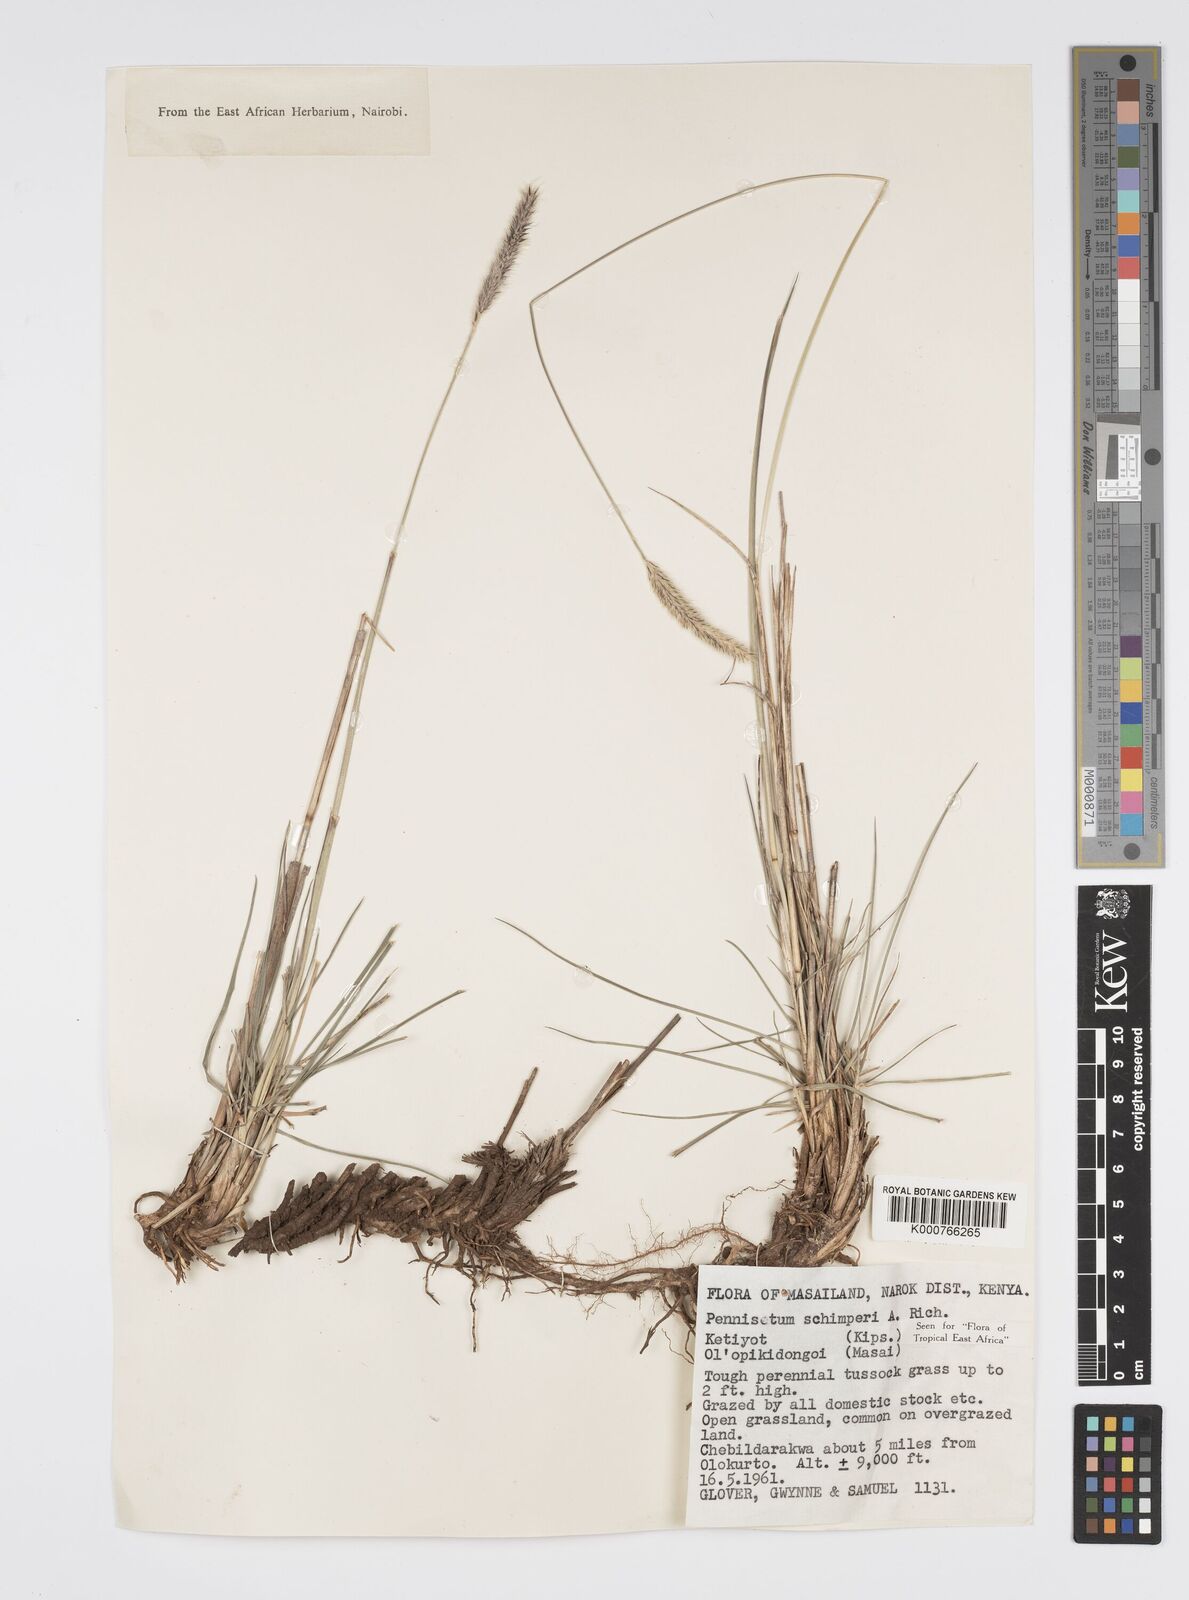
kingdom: Plantae
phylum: Tracheophyta
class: Liliopsida
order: Poales
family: Poaceae
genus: Cenchrus
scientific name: Cenchrus sphacelatus
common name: Bulgras
